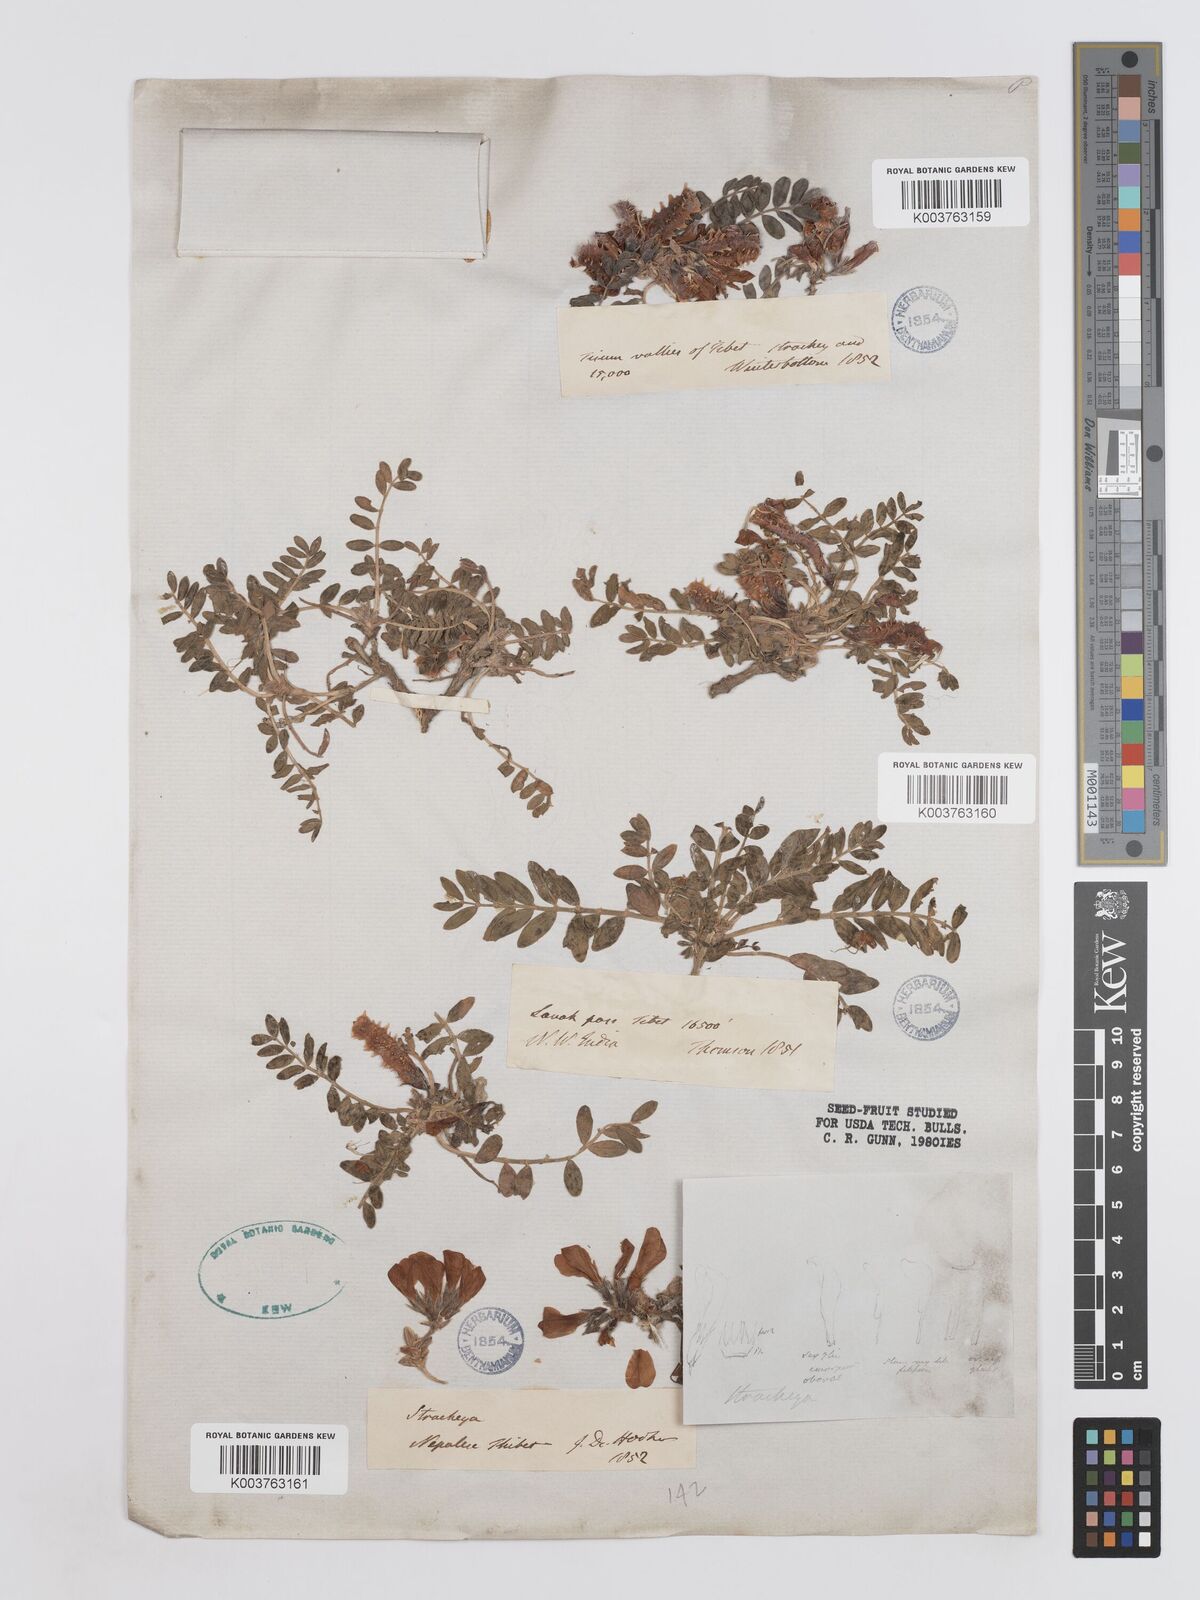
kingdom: Plantae
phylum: Tracheophyta
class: Magnoliopsida
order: Fabales
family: Fabaceae
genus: Hedysarum
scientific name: Hedysarum micropterum
